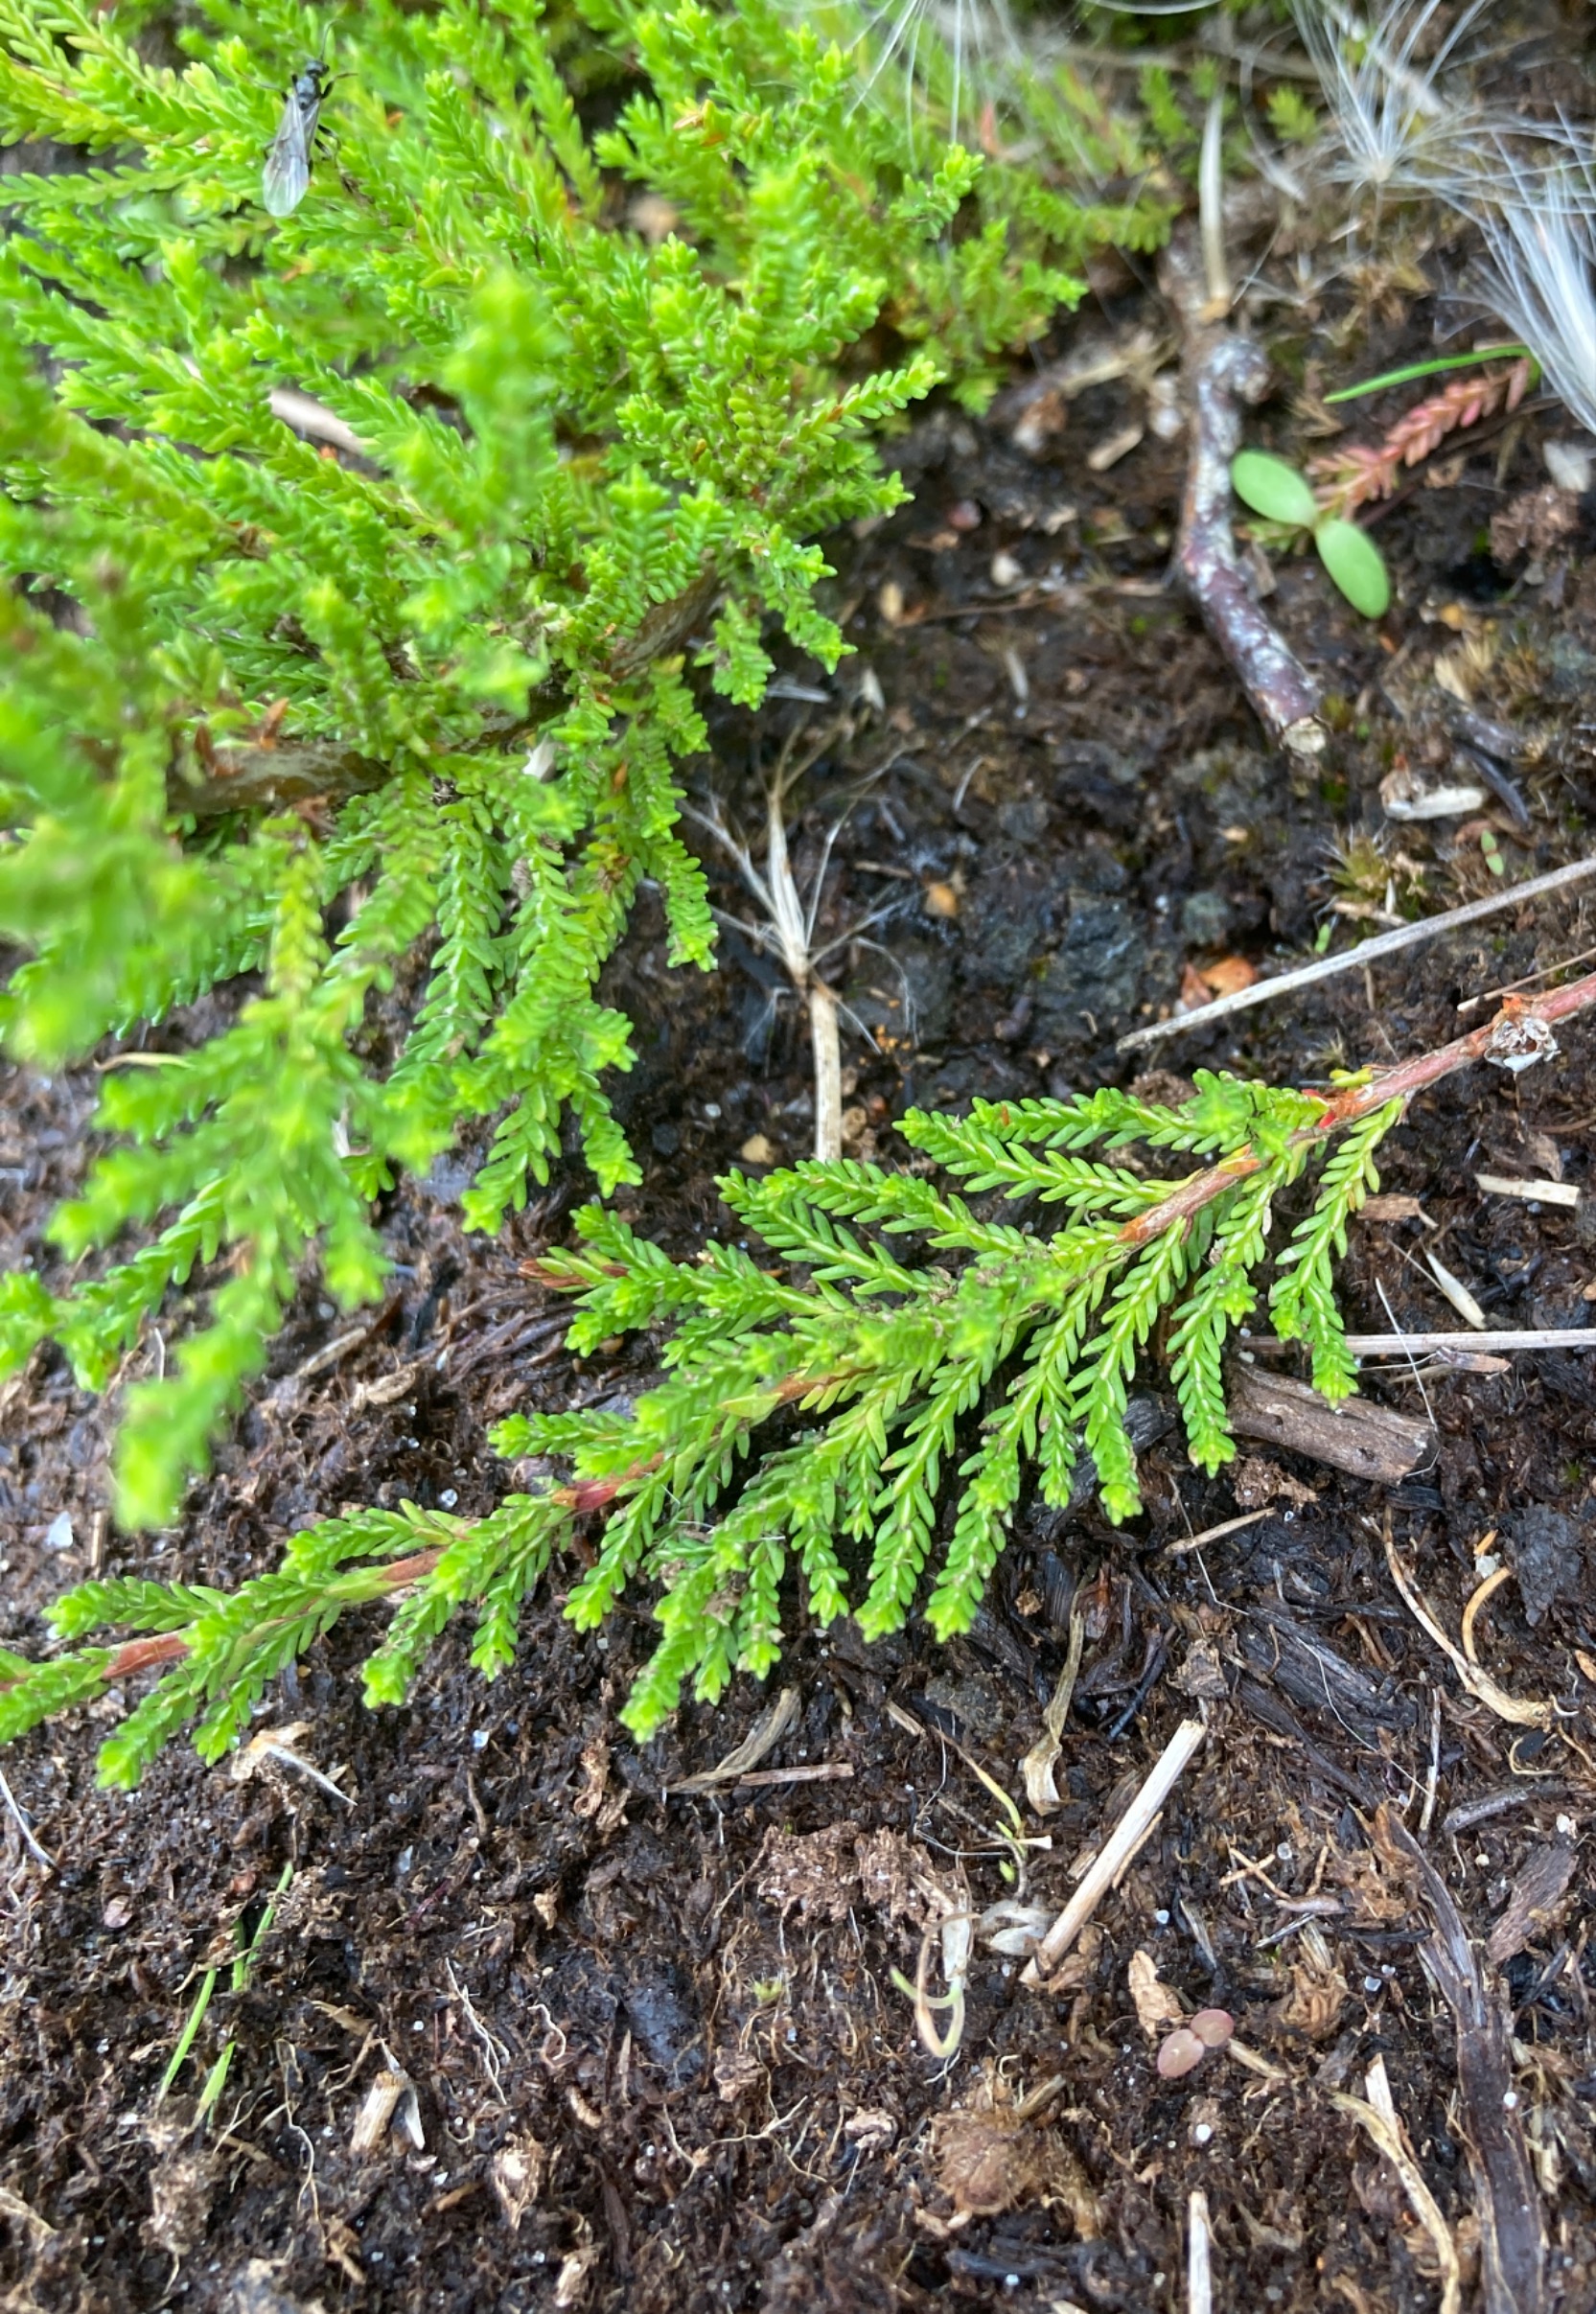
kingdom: Plantae
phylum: Tracheophyta
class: Magnoliopsida
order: Ericales
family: Ericaceae
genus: Calluna
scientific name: Calluna vulgaris
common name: Hedelyng
